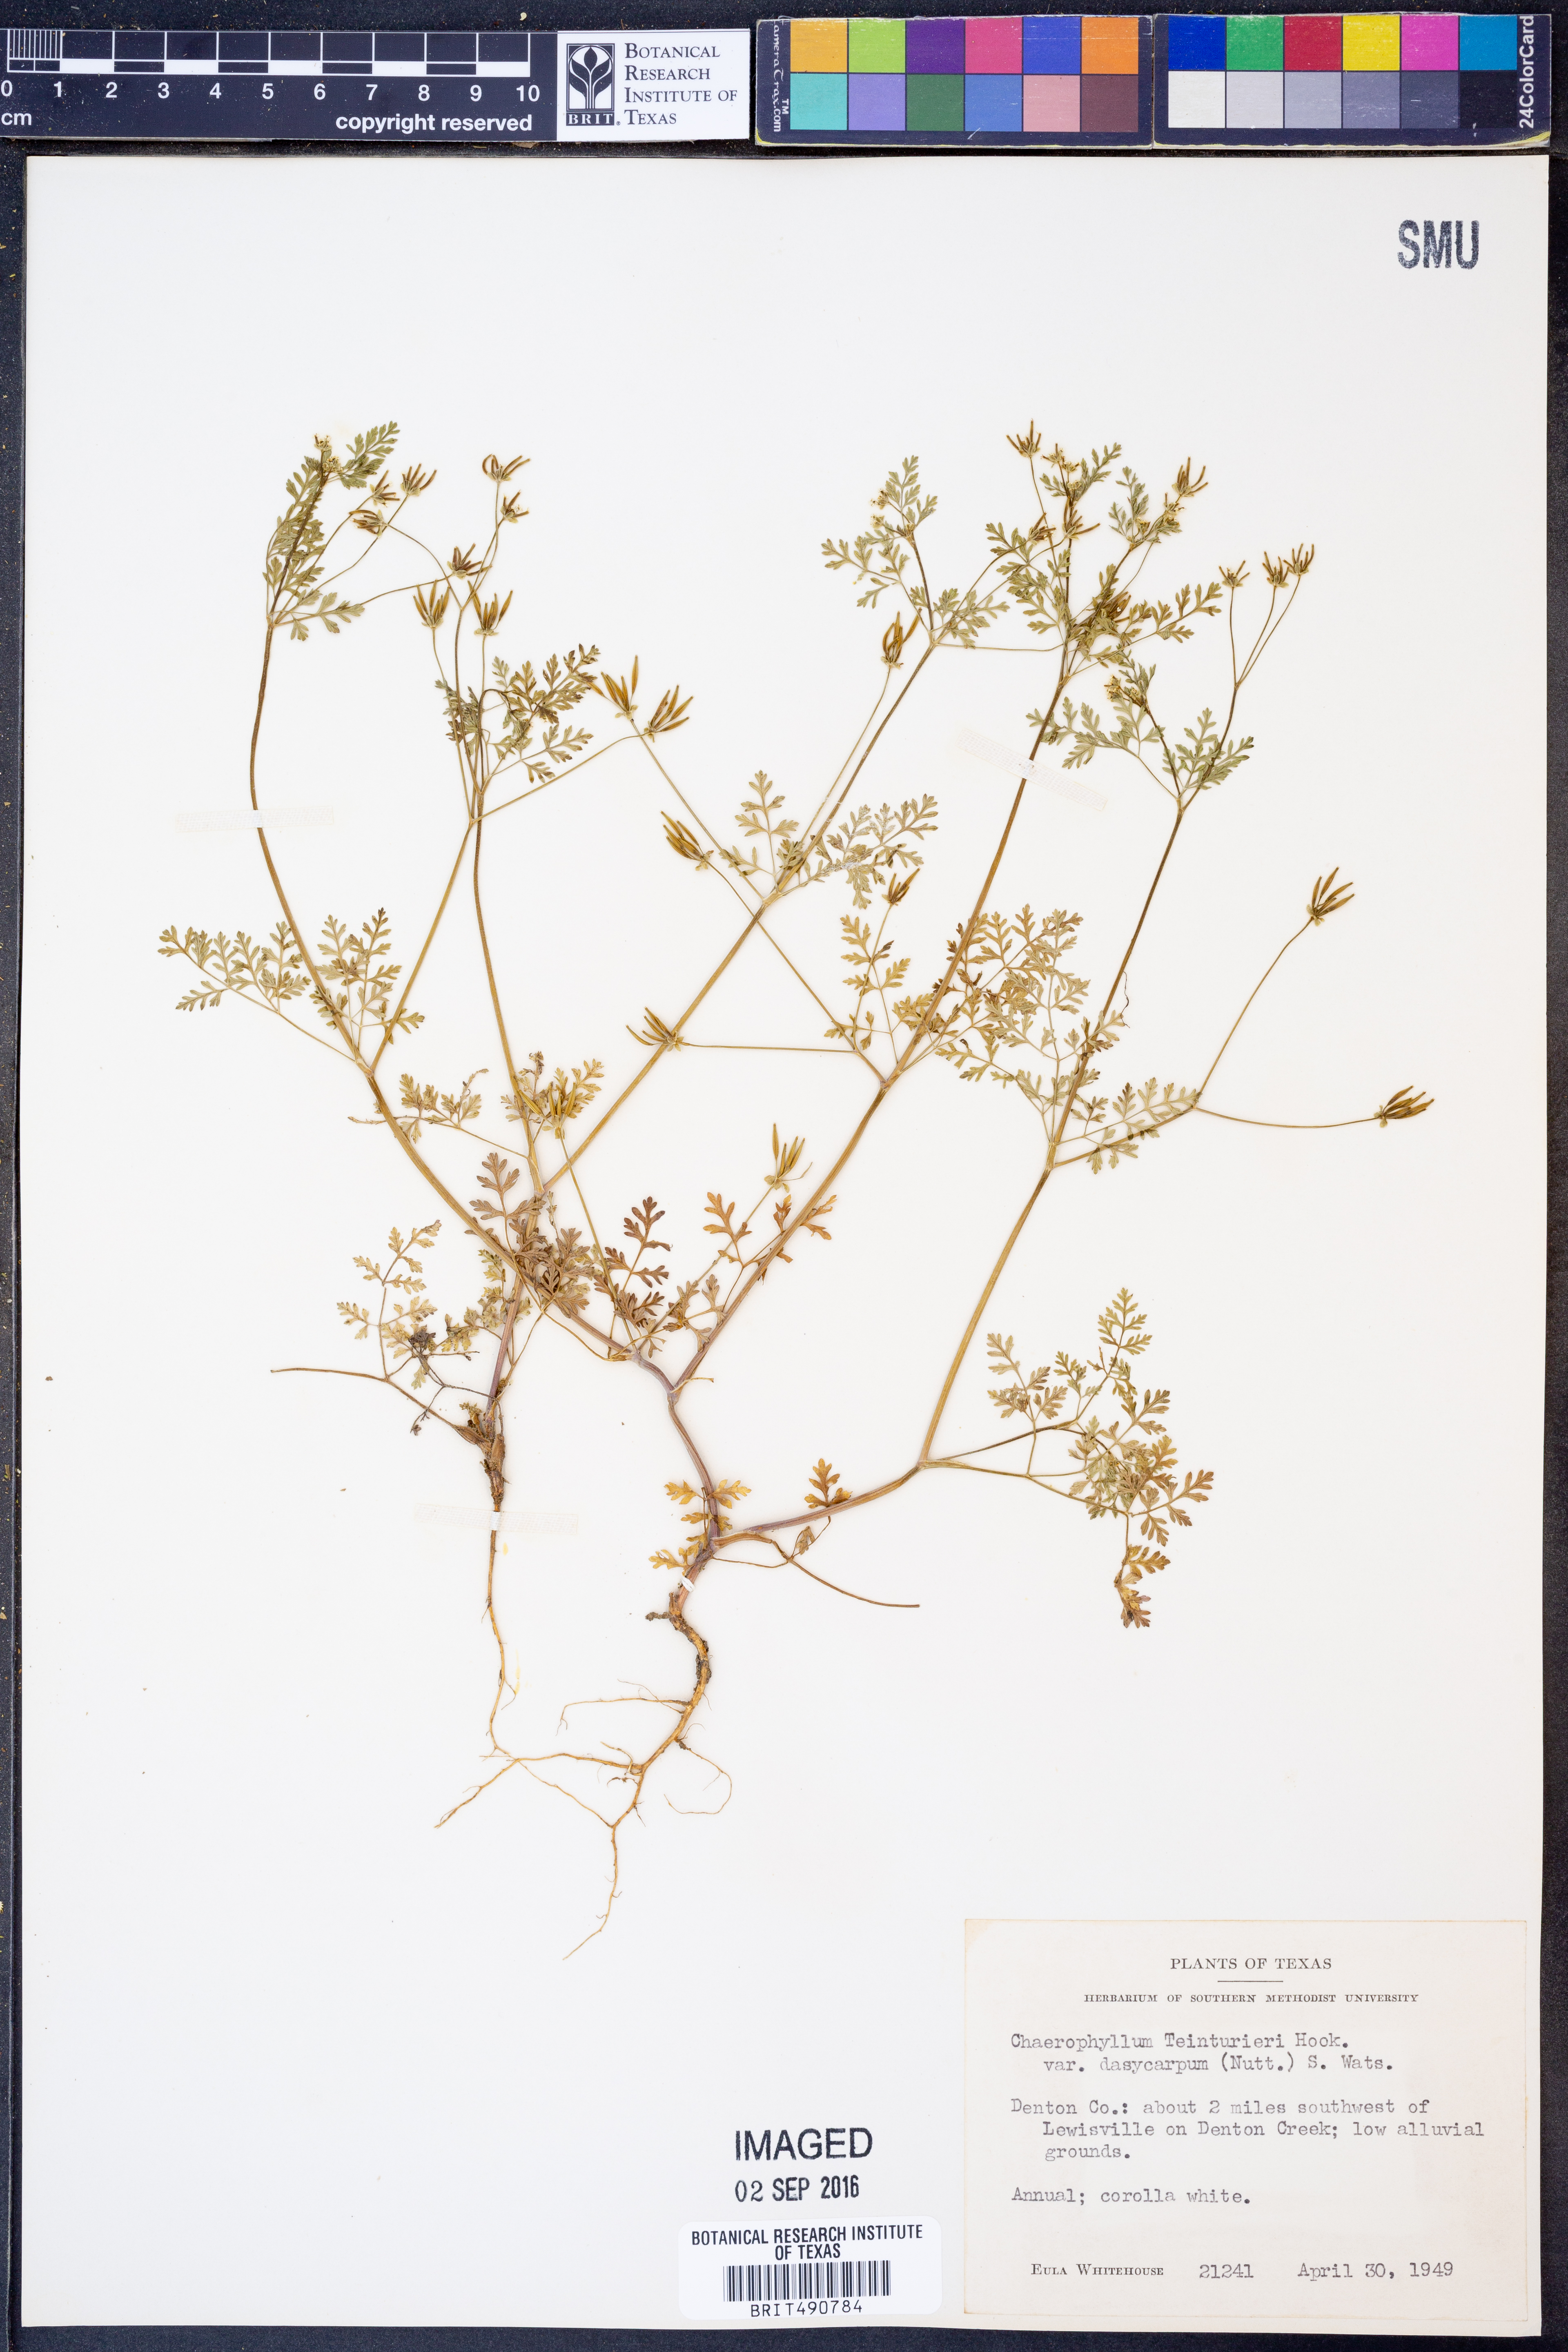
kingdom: Plantae
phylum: Tracheophyta
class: Magnoliopsida
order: Apiales
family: Apiaceae
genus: Chaerophyllum
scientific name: Chaerophyllum dasycarpum
